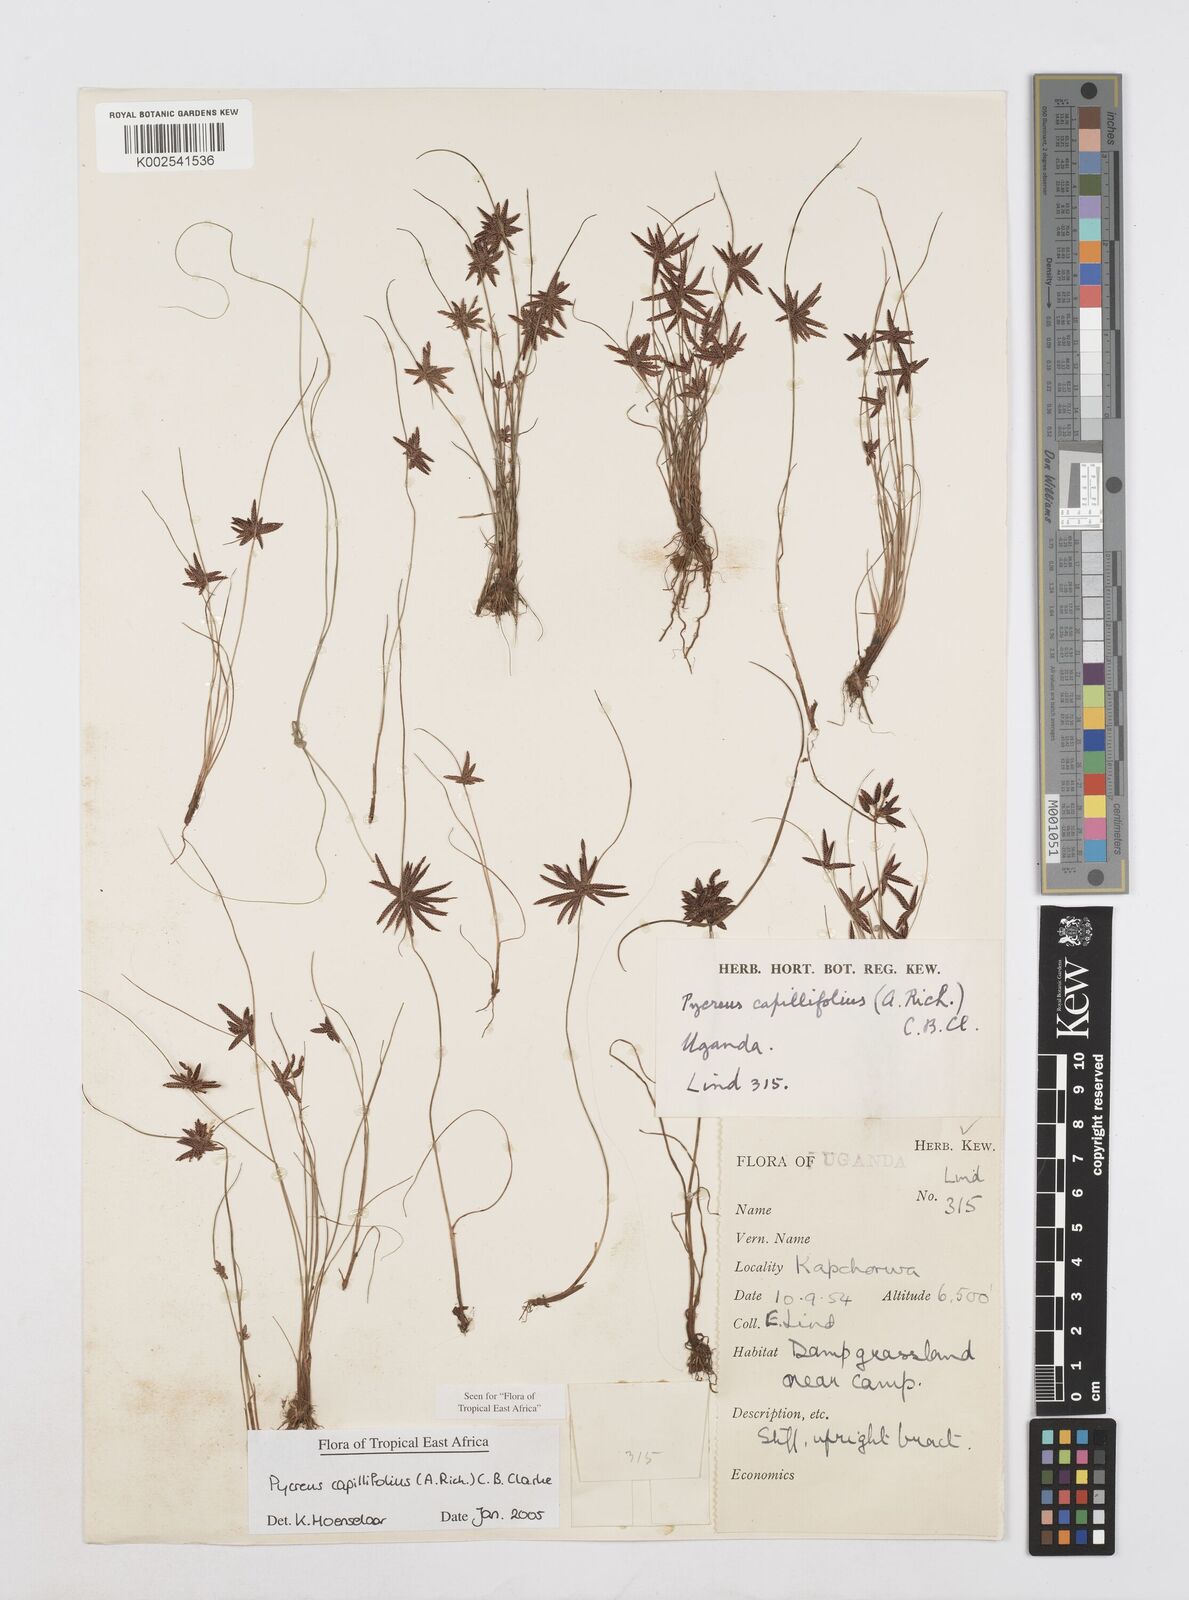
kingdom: Plantae
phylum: Tracheophyta
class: Liliopsida
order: Poales
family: Cyperaceae
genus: Cyperus
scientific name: Cyperus capillifolius
